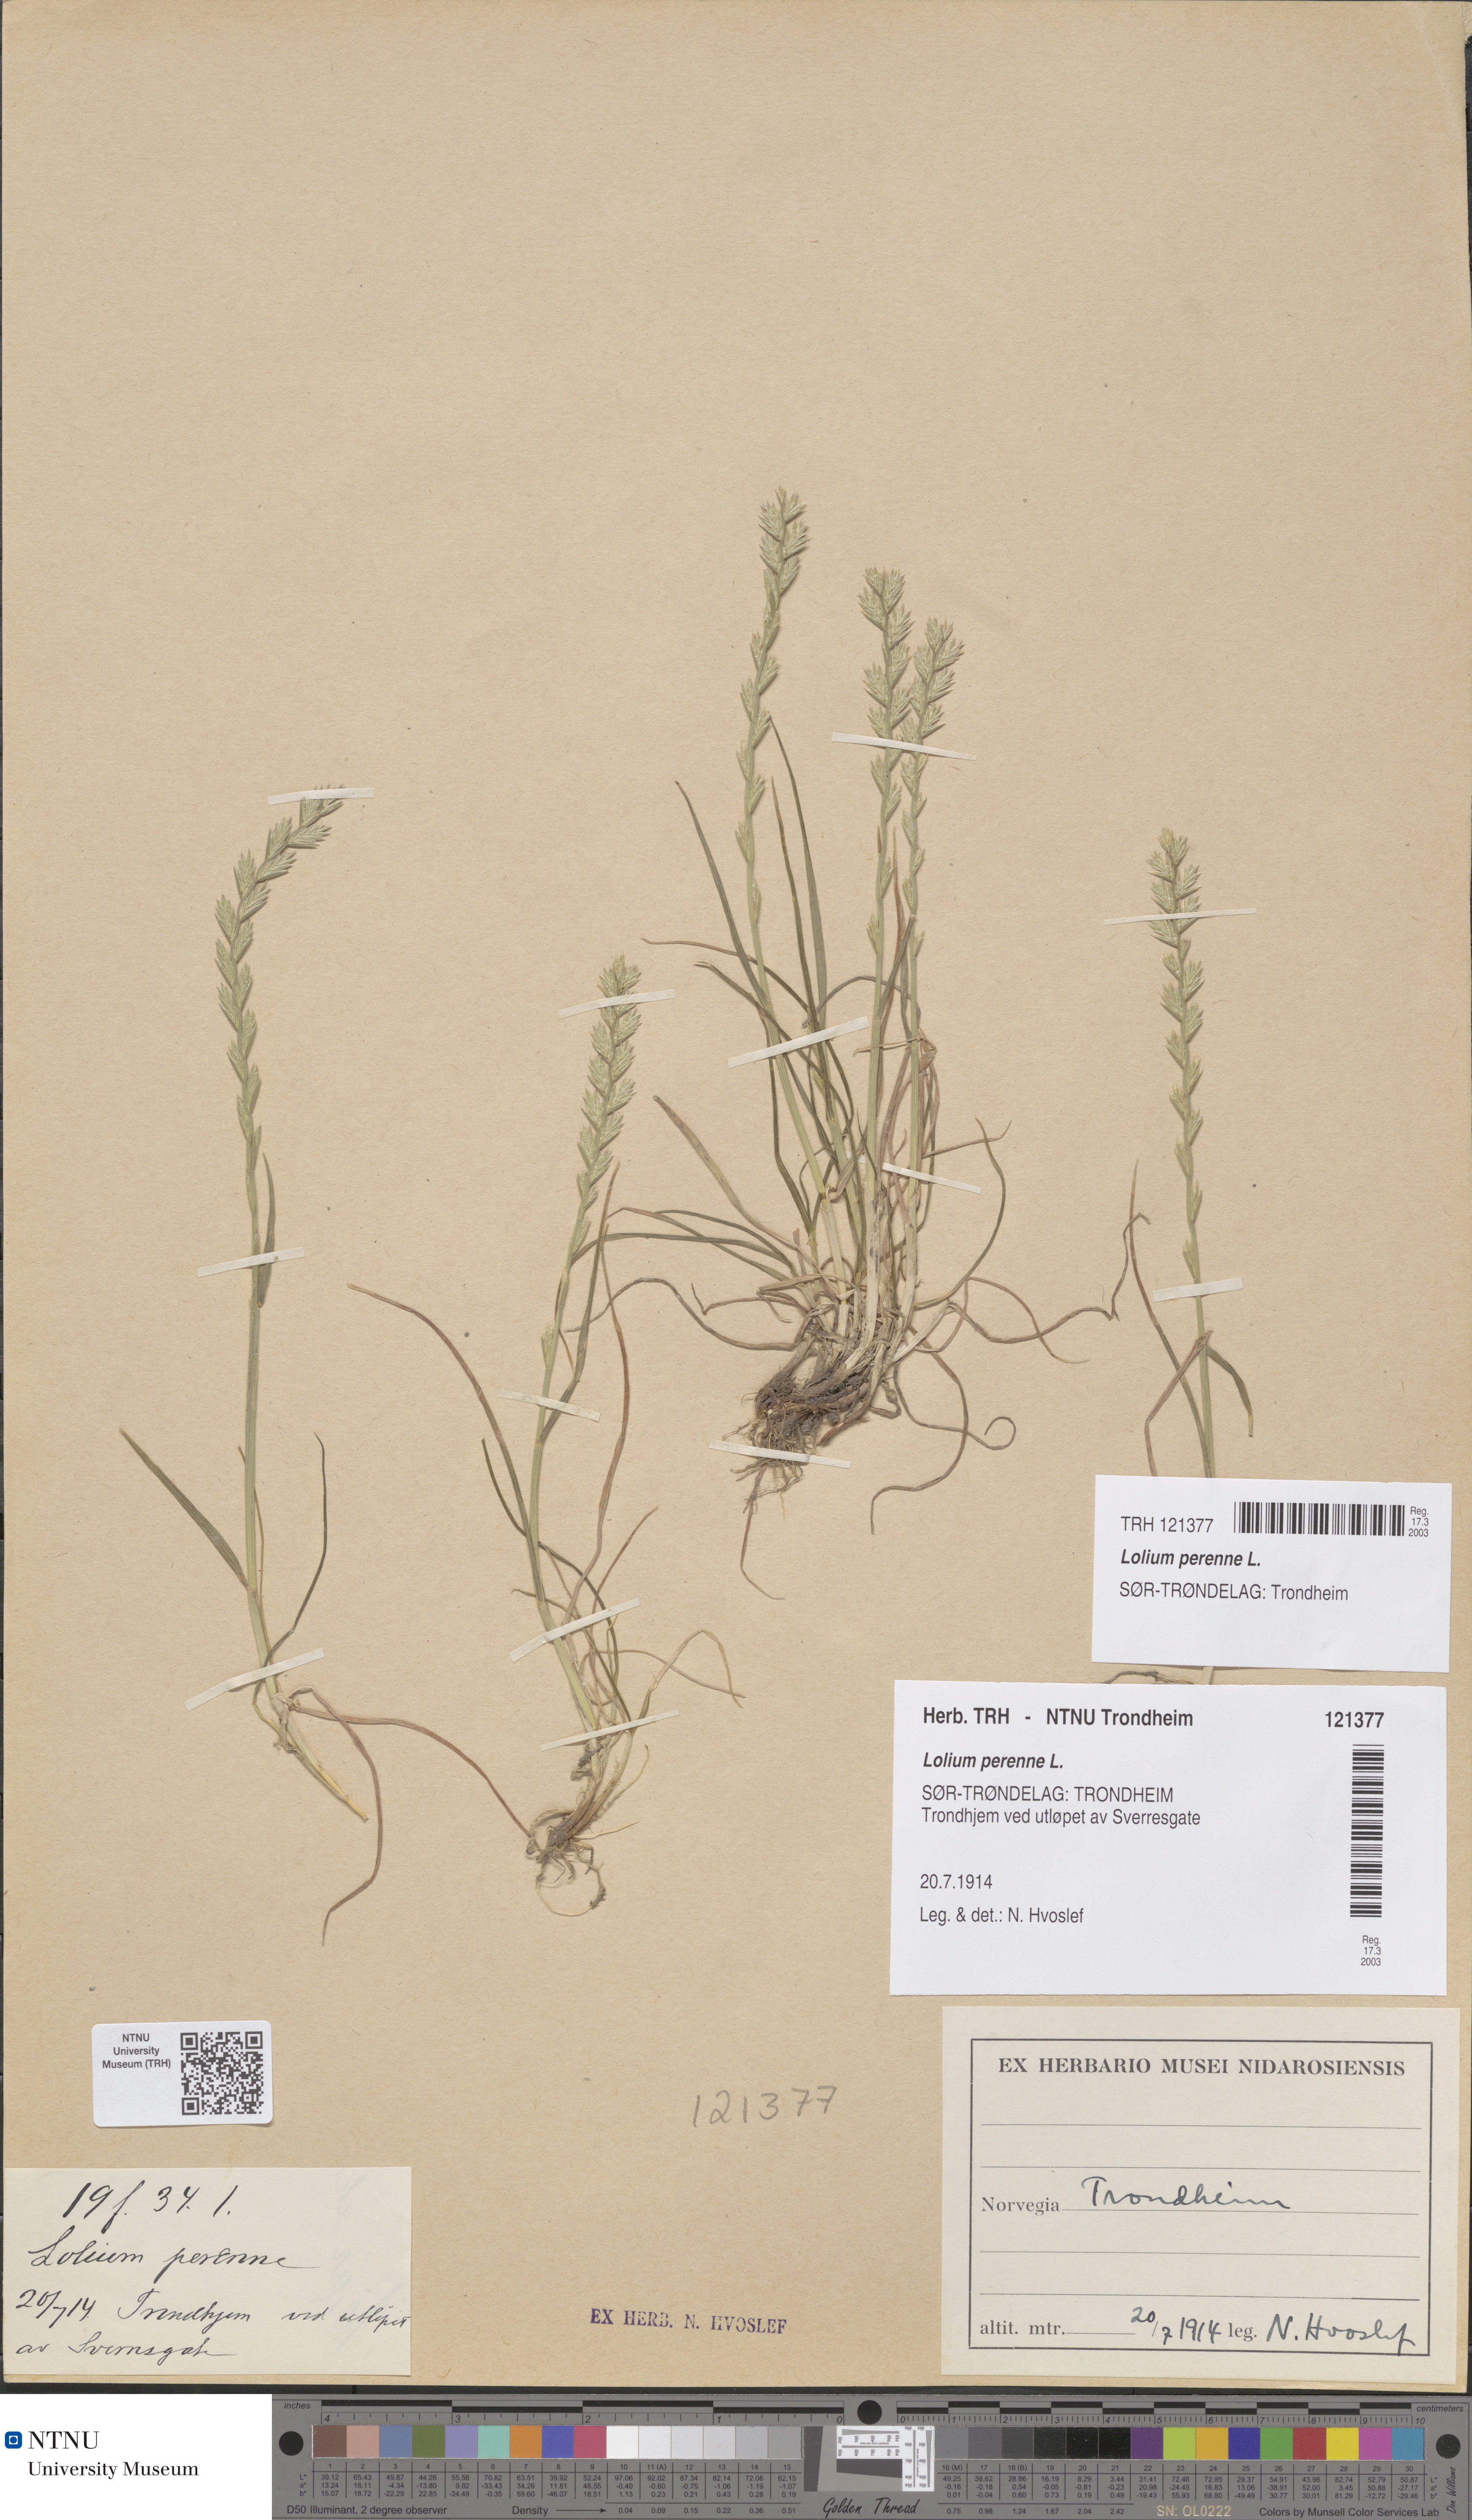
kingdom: Plantae
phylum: Tracheophyta
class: Liliopsida
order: Poales
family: Poaceae
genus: Lolium
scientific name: Lolium perenne
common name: Perennial ryegrass
